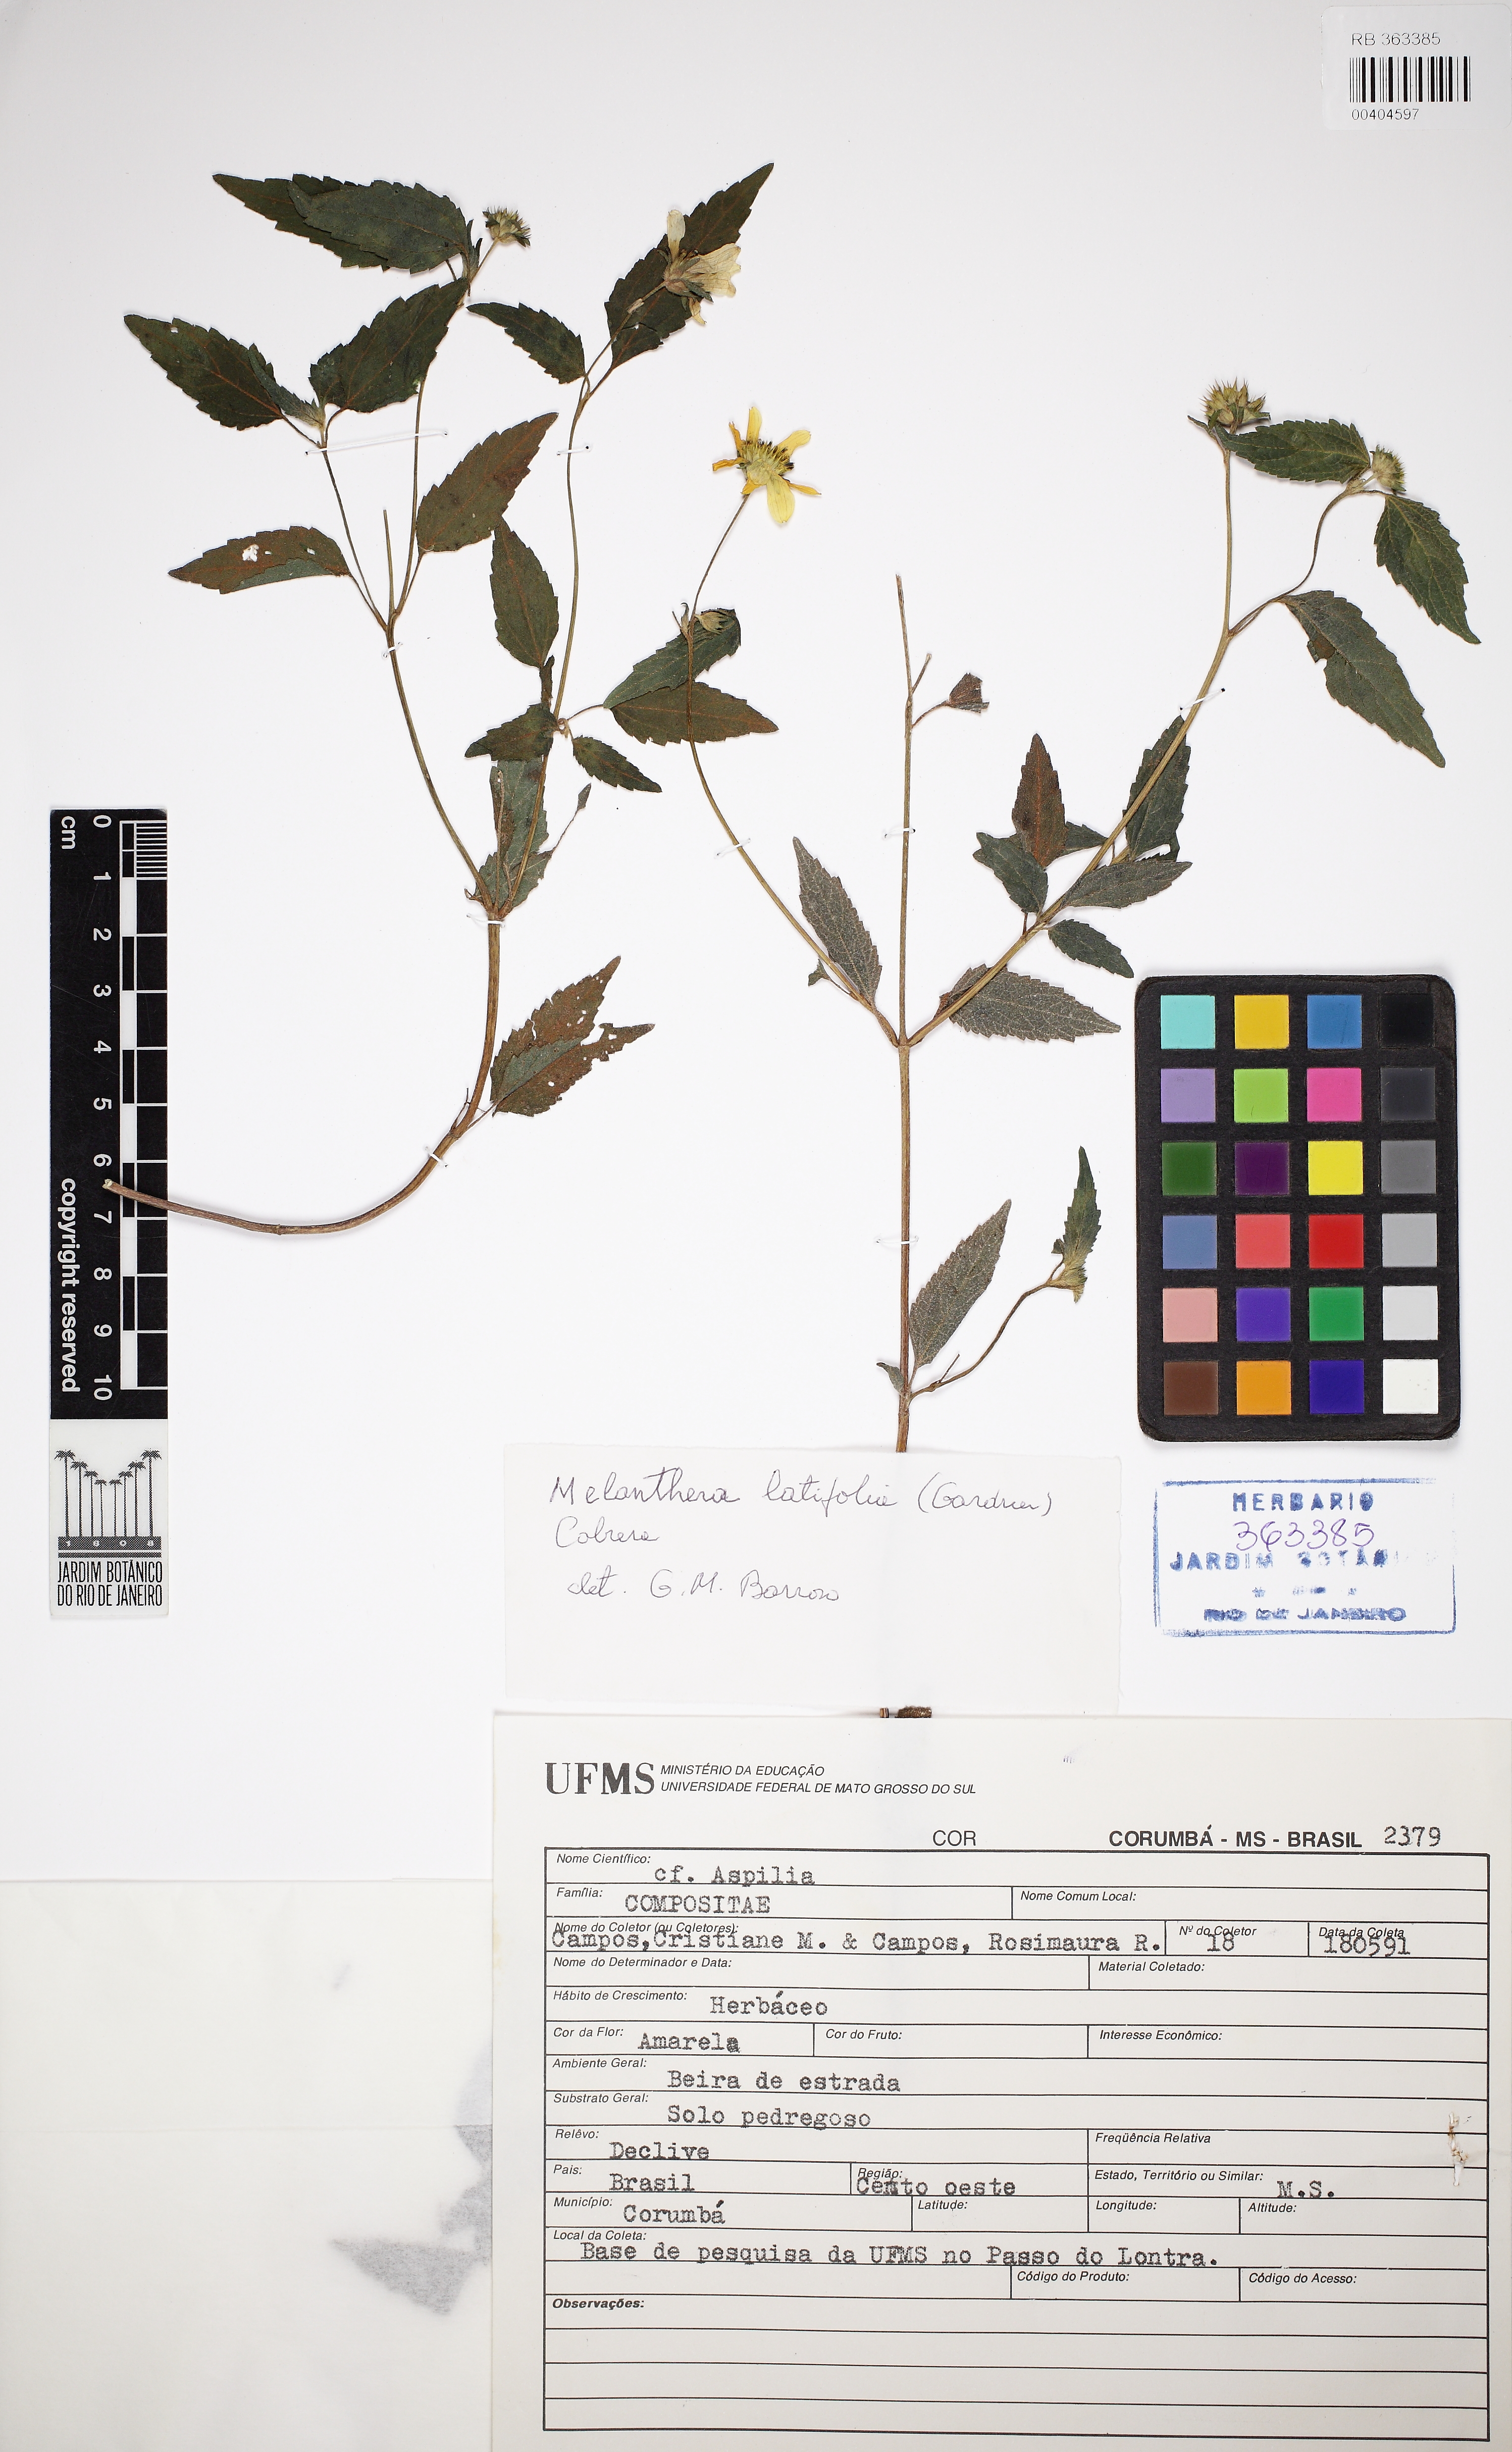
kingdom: Plantae
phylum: Tracheophyta
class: Magnoliopsida
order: Asterales
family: Asteraceae
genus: Echinocephalum
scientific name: Echinocephalum latifolium
